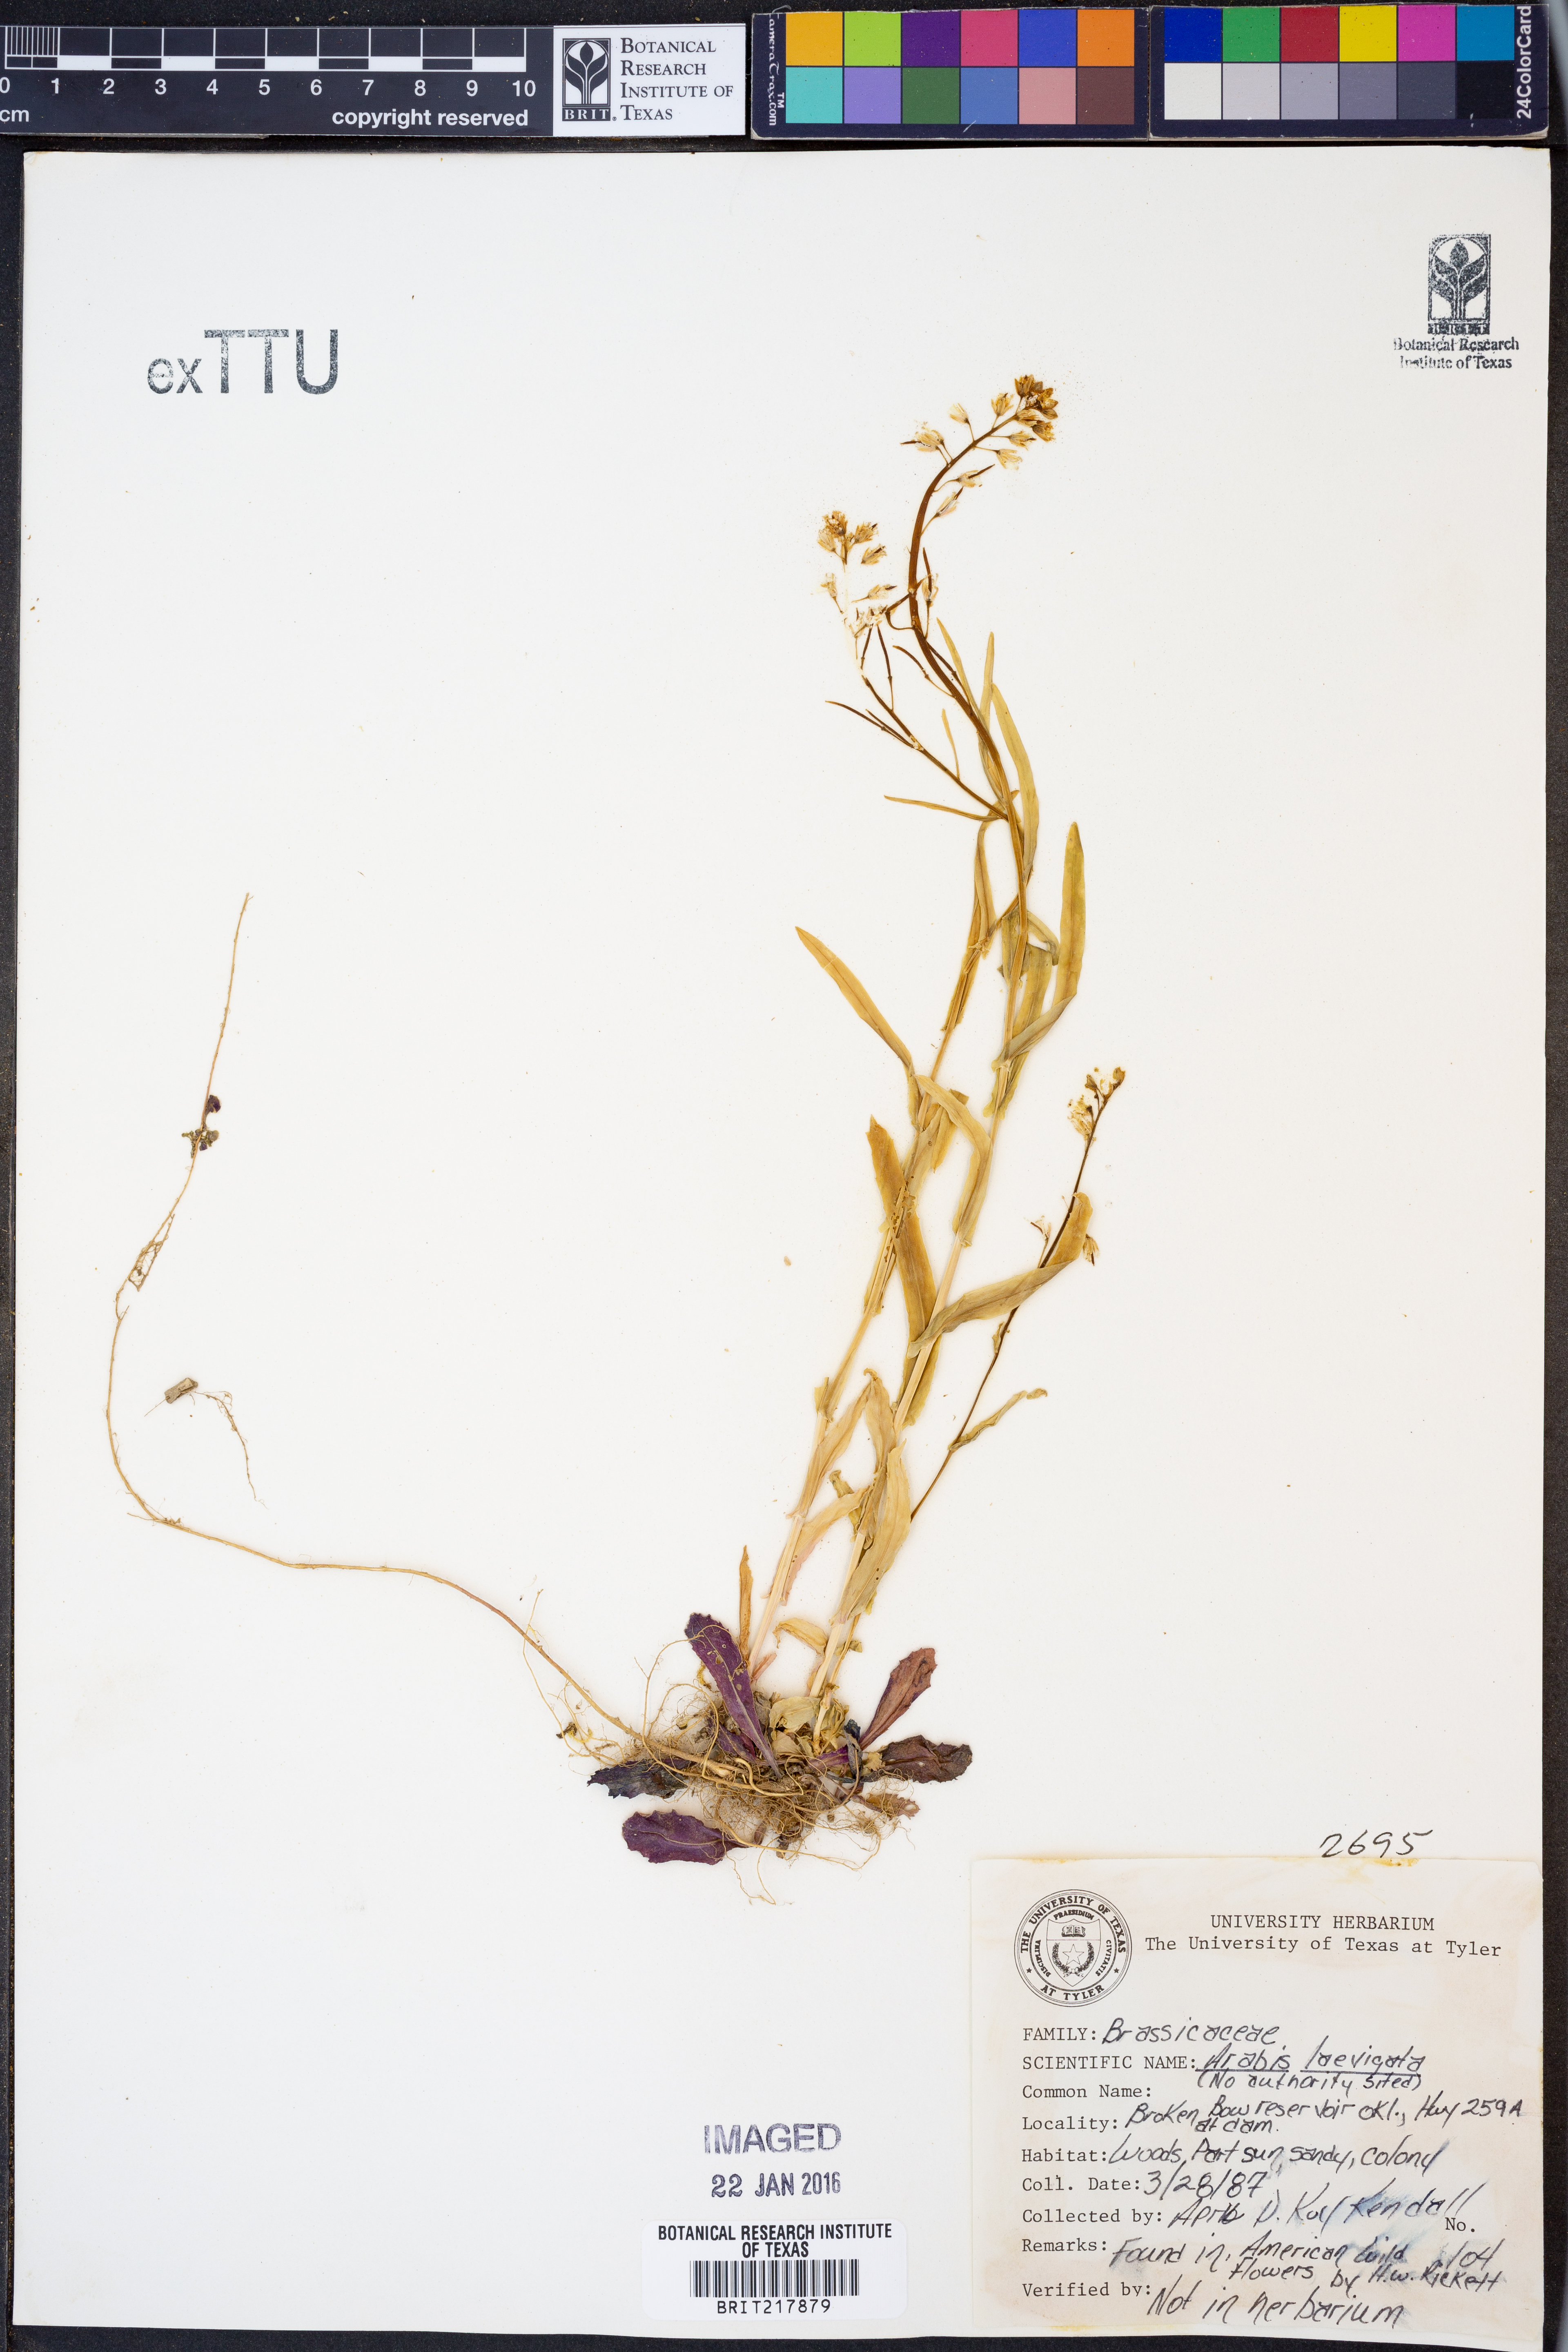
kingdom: Plantae
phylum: Tracheophyta
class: Magnoliopsida
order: Brassicales
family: Brassicaceae
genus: Arabis
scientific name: Arabis laevigata
